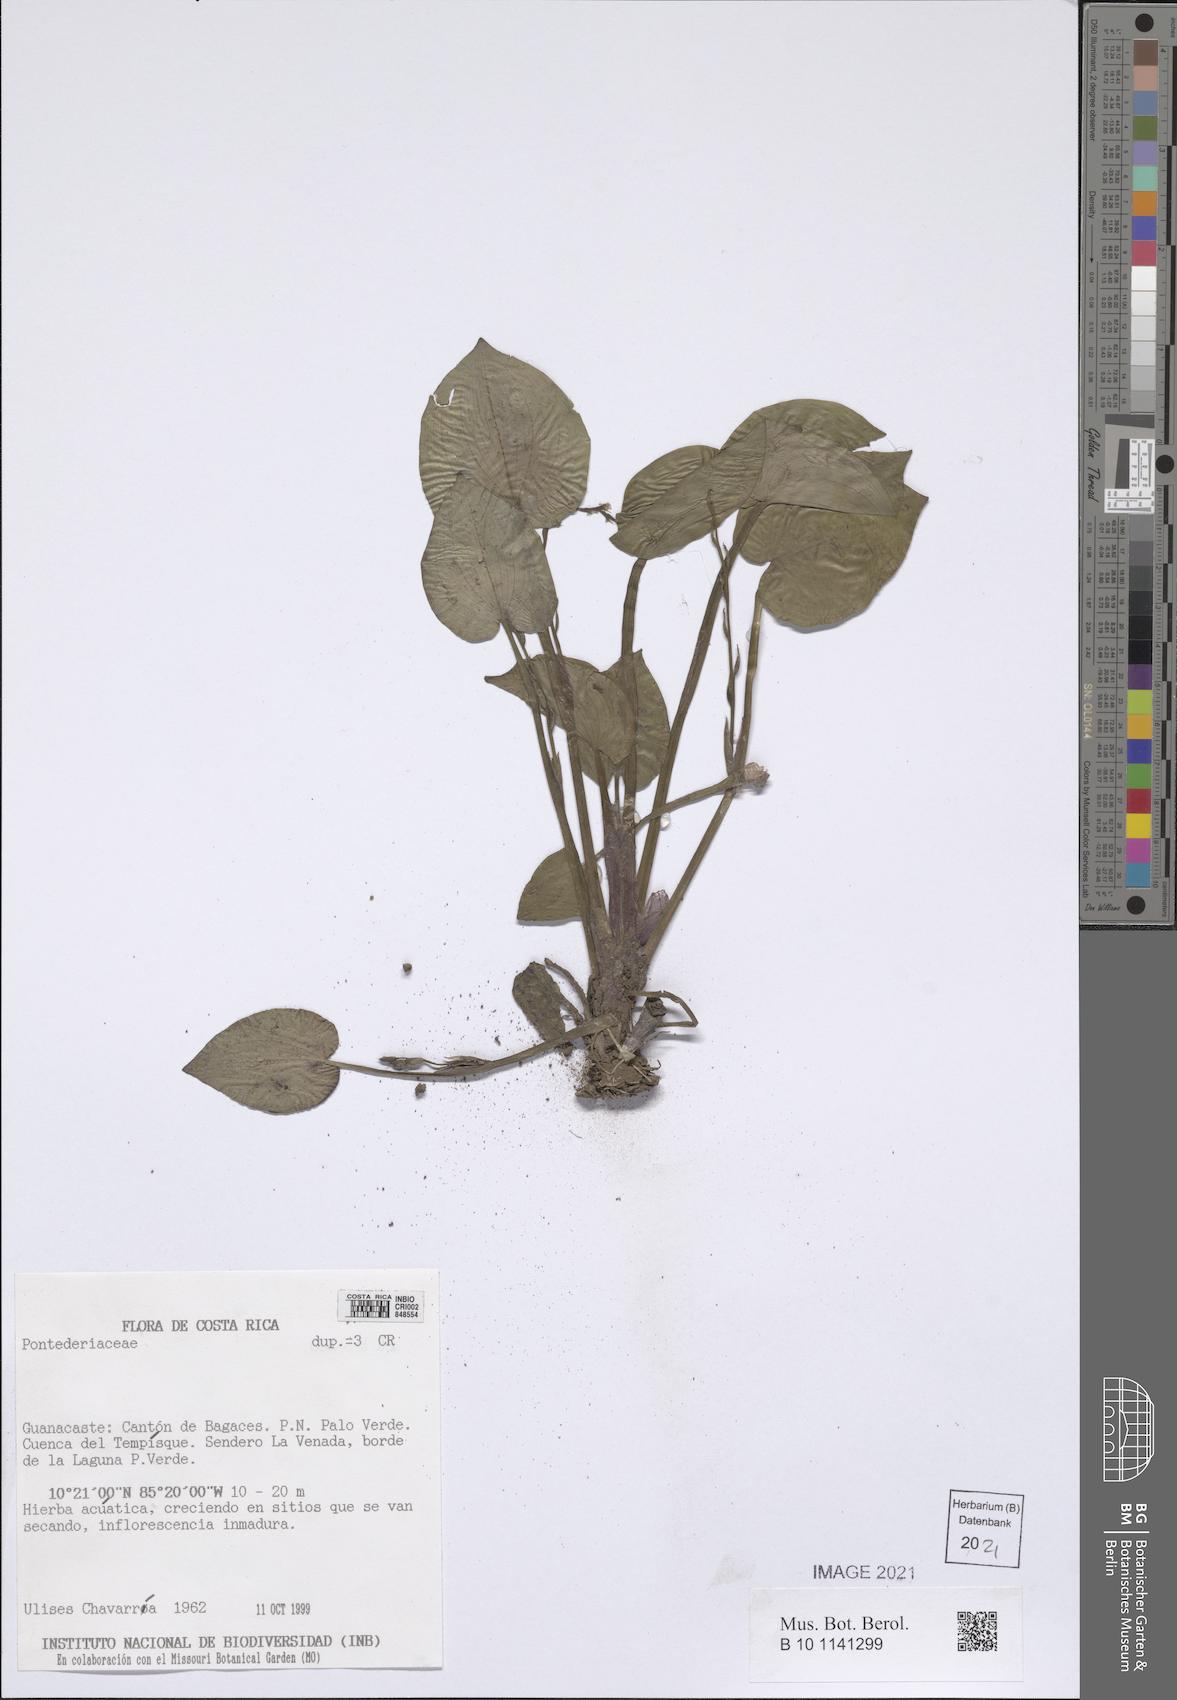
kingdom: Plantae
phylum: Tracheophyta
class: Liliopsida
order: Commelinales
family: Pontederiaceae
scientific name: Pontederiaceae
